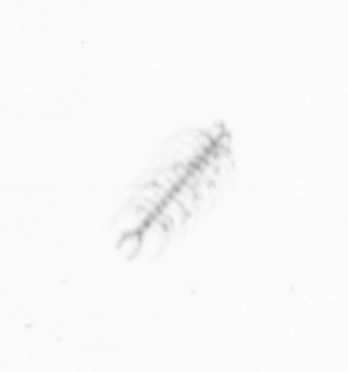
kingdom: Chromista
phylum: Ochrophyta
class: Bacillariophyceae
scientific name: Bacillariophyceae
